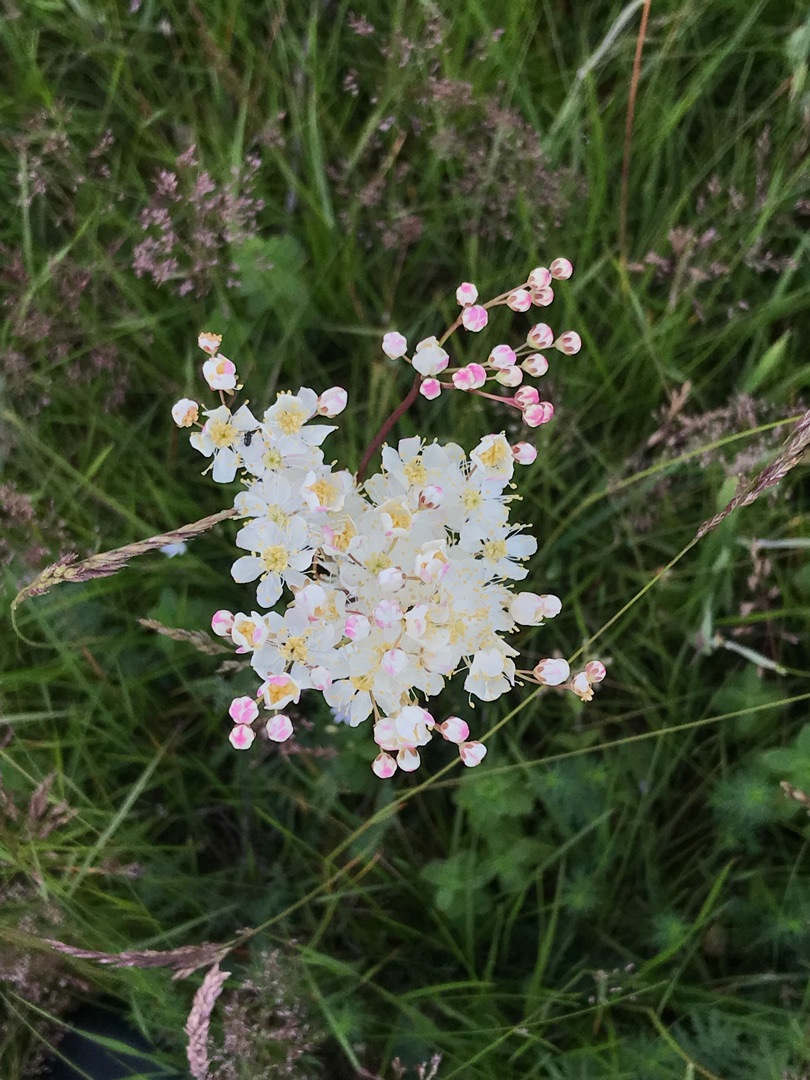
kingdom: Plantae
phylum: Tracheophyta
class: Magnoliopsida
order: Rosales
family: Rosaceae
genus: Filipendula
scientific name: Filipendula vulgaris
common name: Knoldet mjødurt
